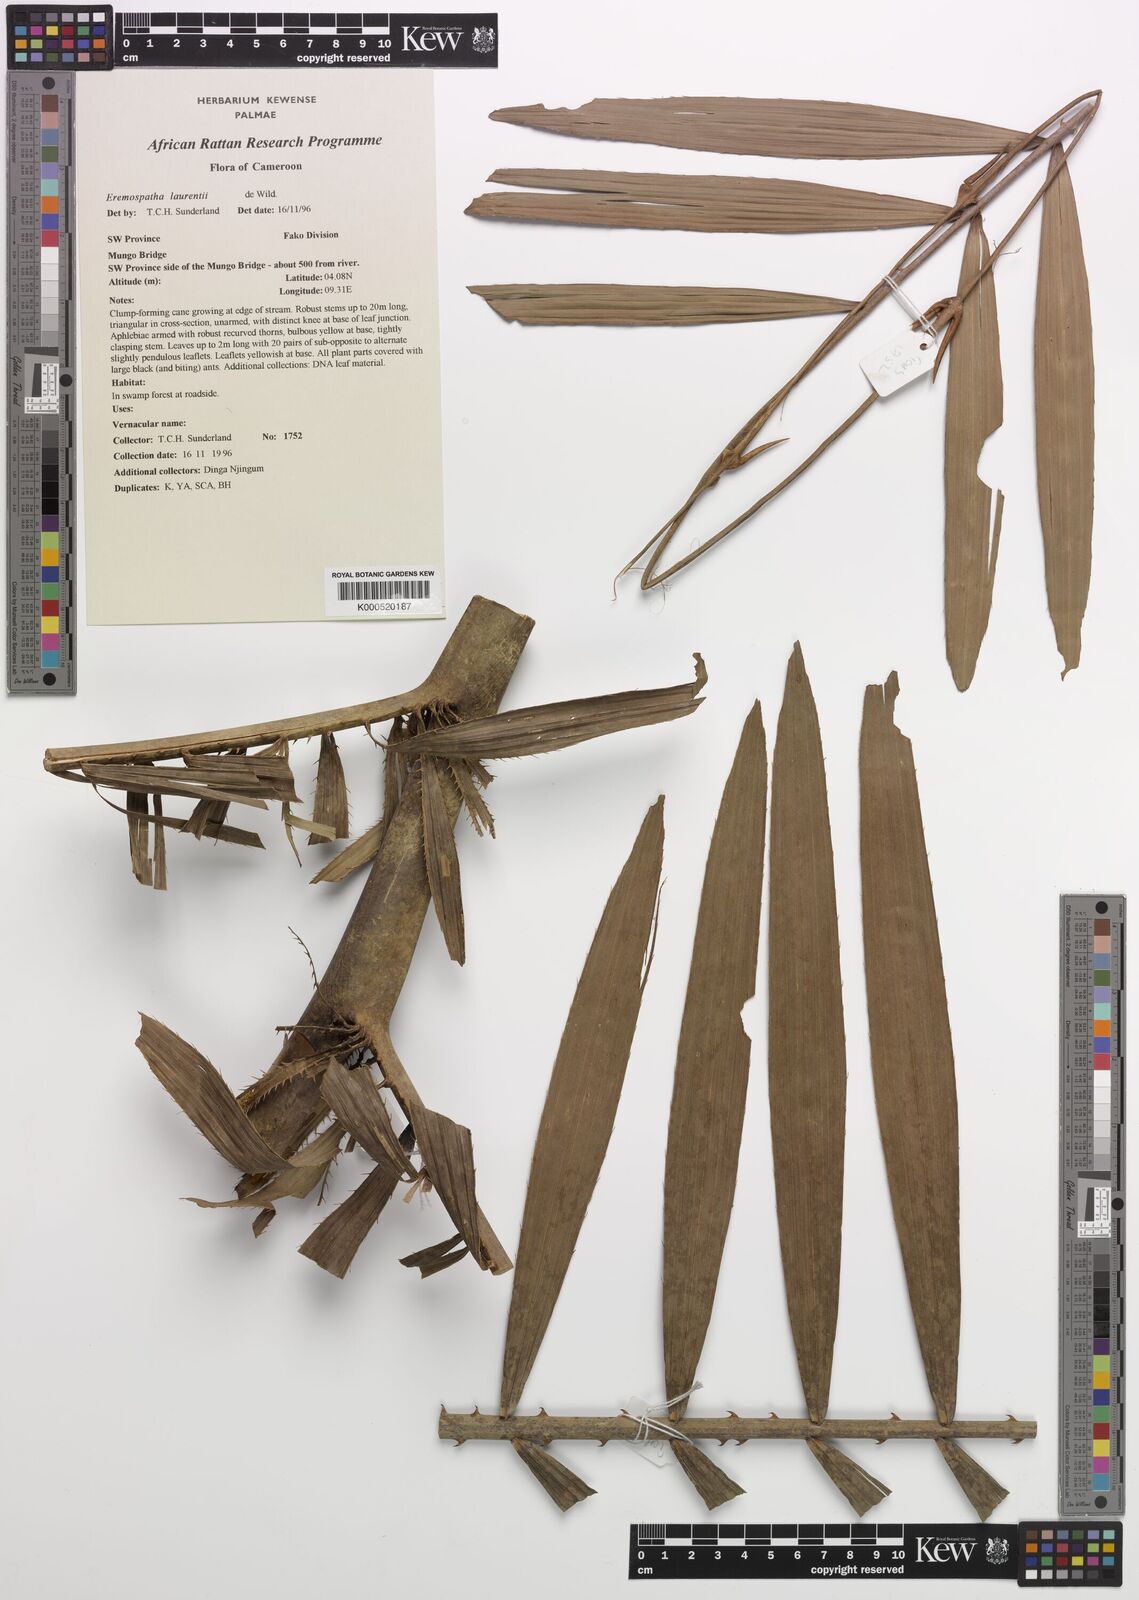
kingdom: Plantae
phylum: Tracheophyta
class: Liliopsida
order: Arecales
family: Arecaceae
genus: Eremospatha
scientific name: Eremospatha laurentii
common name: Rattan palm
